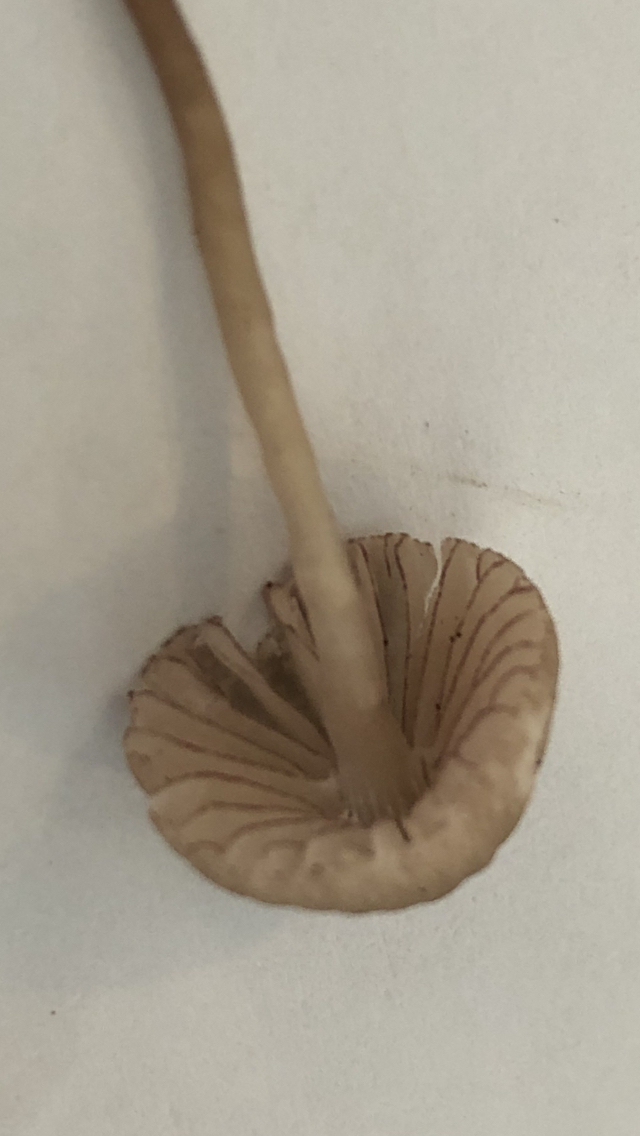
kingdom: Fungi
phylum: Basidiomycota
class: Agaricomycetes
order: Agaricales
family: Mycenaceae
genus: Mycena
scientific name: Mycena rubromarginata
